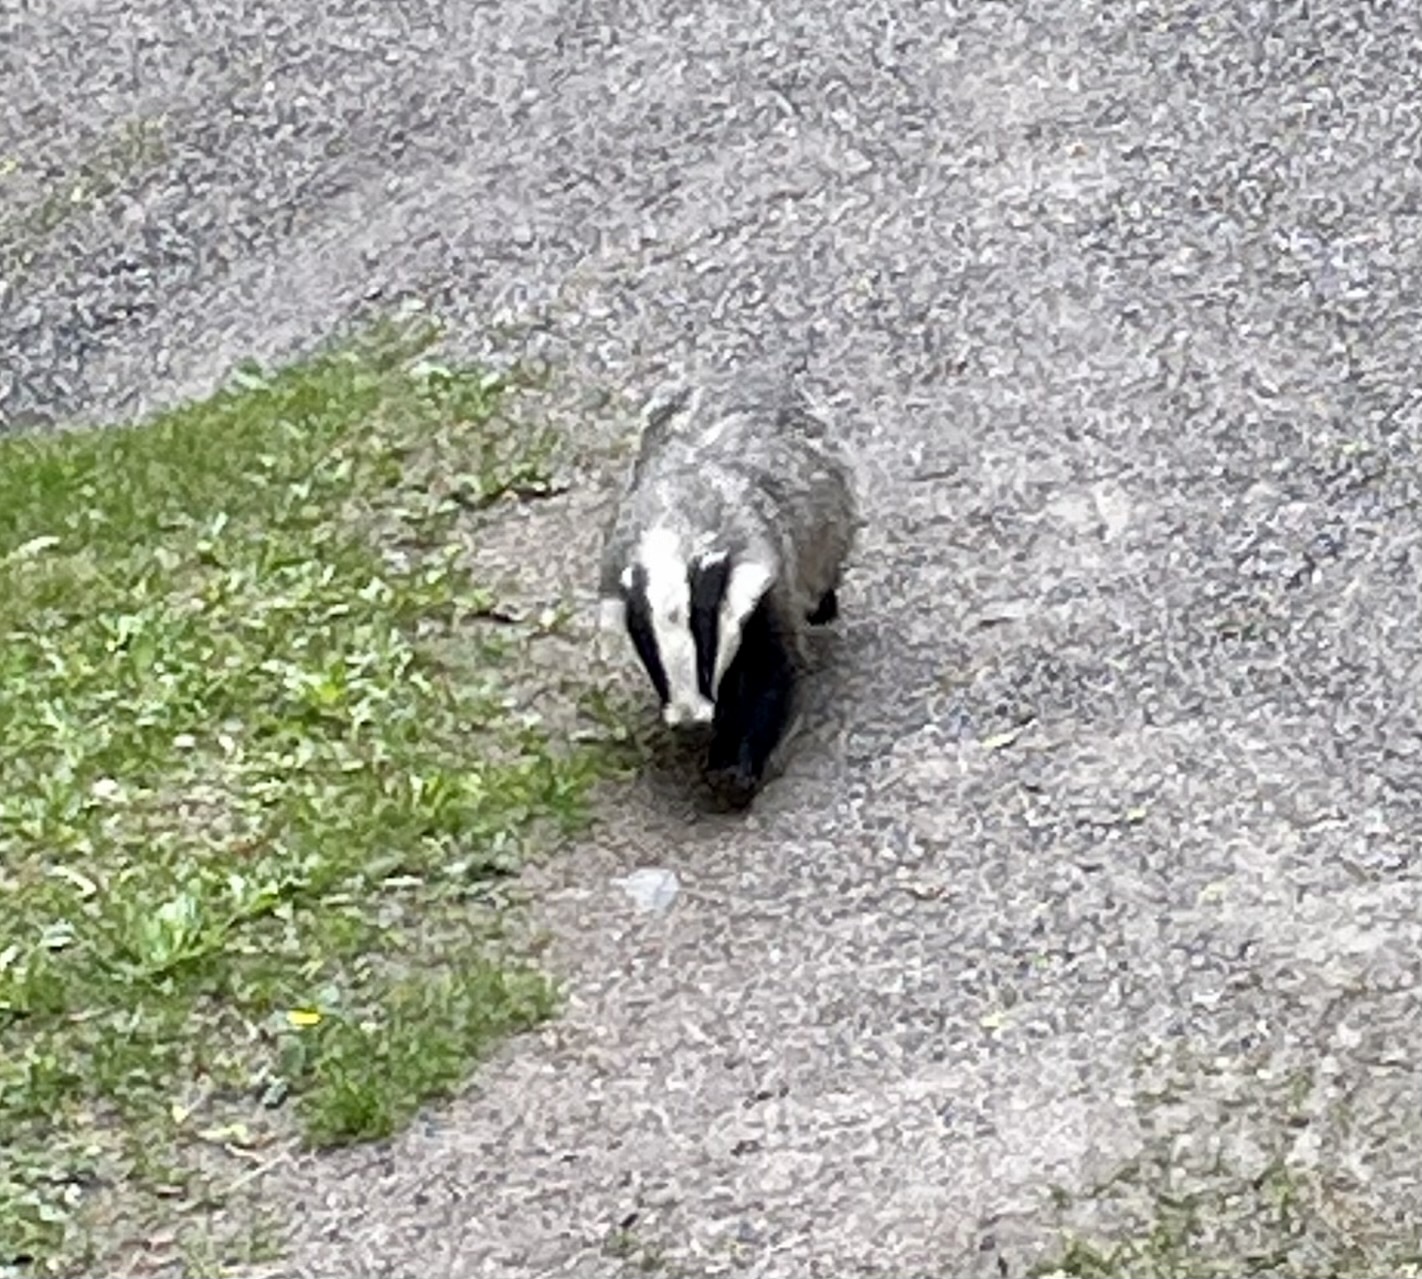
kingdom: Animalia
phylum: Chordata
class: Mammalia
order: Carnivora
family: Mustelidae
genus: Meles
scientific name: Meles meles
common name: Eurasian badger
